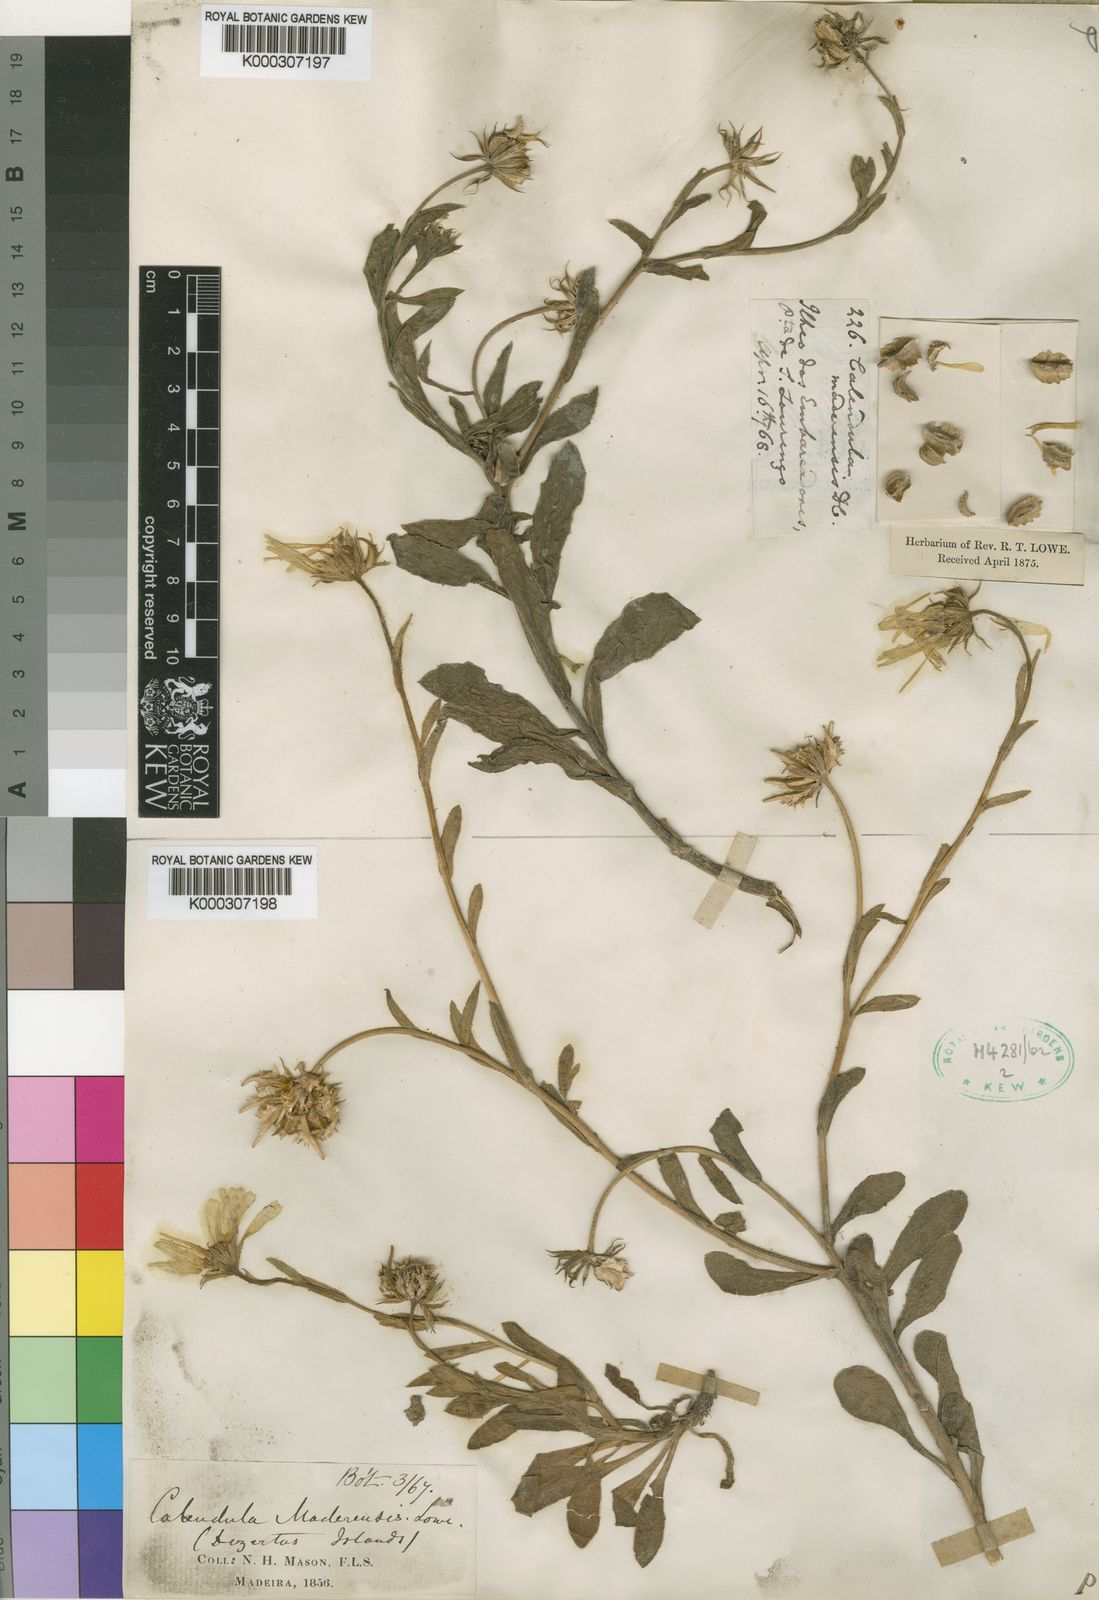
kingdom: Plantae
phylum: Tracheophyta
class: Magnoliopsida
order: Asterales
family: Asteraceae
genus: Calendula
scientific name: Calendula suffruticosa
